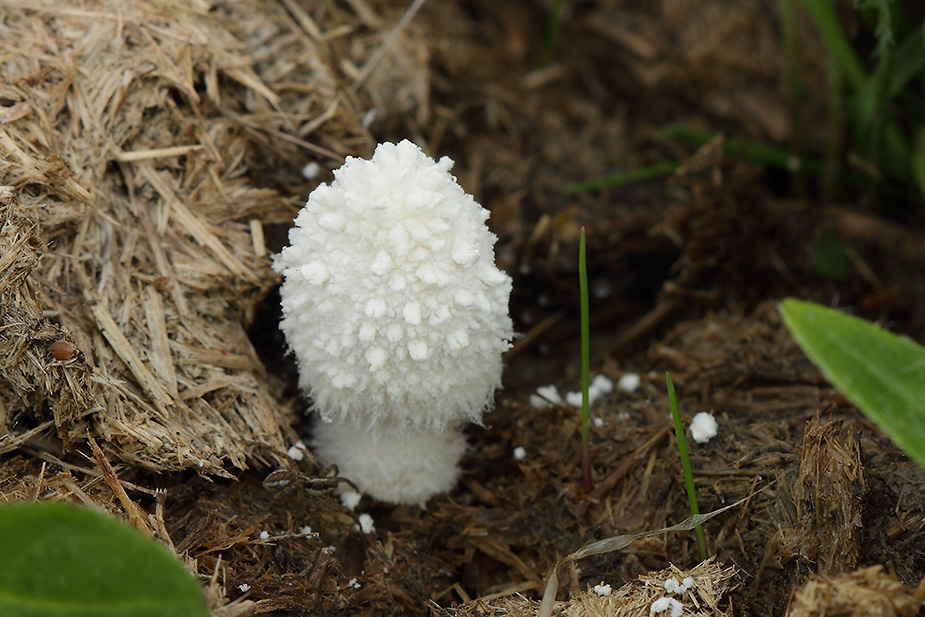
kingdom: Fungi
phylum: Basidiomycota
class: Agaricomycetes
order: Agaricales
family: Psathyrellaceae
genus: Coprinopsis
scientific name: Coprinopsis nivea
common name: snehvid blækhat
